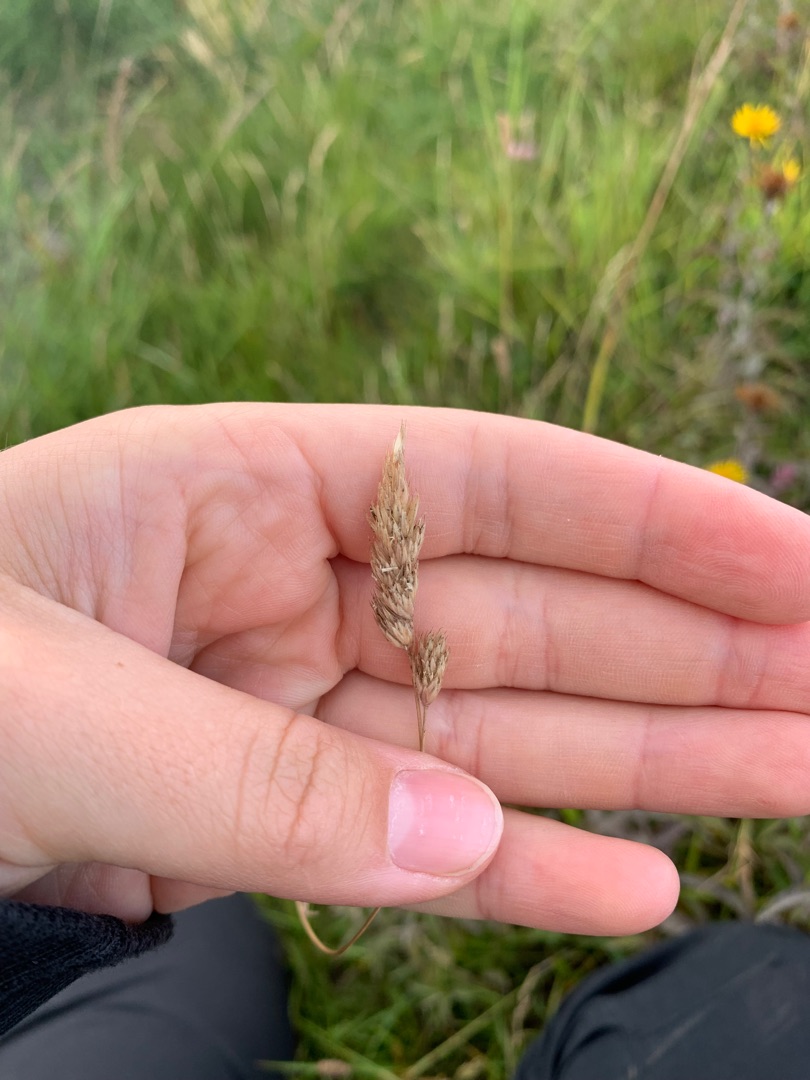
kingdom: Plantae
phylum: Tracheophyta
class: Liliopsida
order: Poales
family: Poaceae
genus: Dactylis
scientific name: Dactylis glomerata
